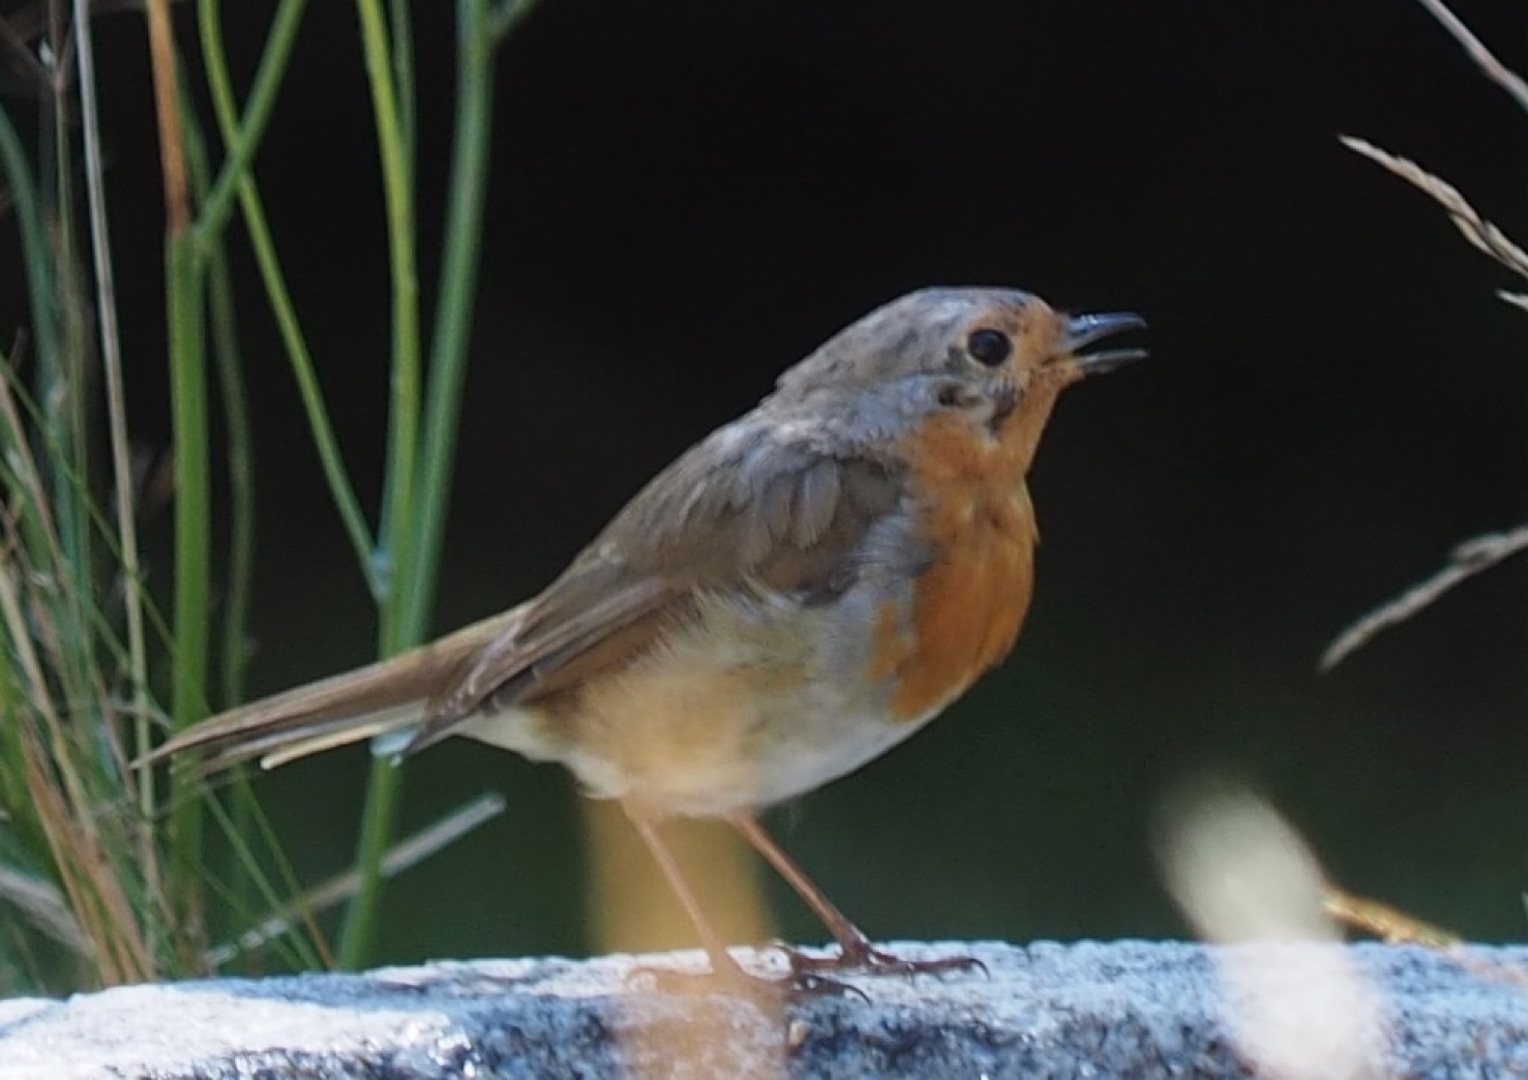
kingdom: Animalia
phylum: Chordata
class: Aves
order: Passeriformes
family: Muscicapidae
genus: Erithacus
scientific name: Erithacus rubecula
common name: Rødhals/rødkælk
